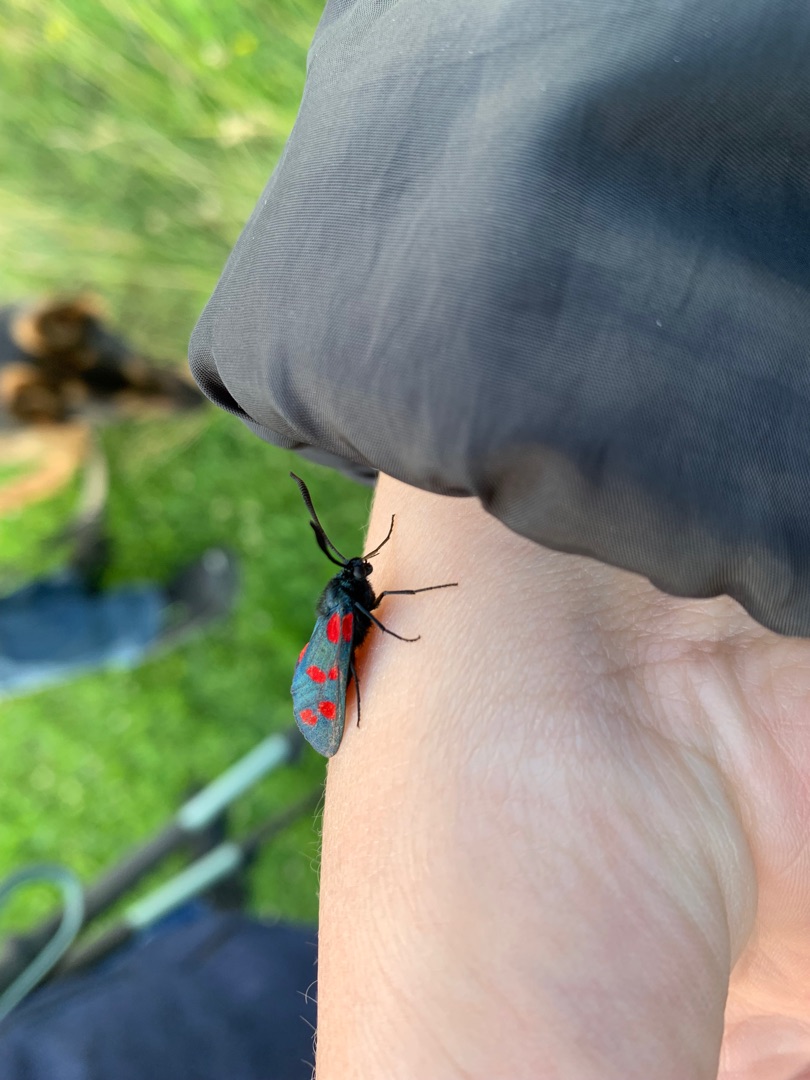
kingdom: Animalia
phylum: Arthropoda
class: Insecta
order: Lepidoptera
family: Zygaenidae
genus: Zygaena
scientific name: Zygaena filipendulae
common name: Seksplettet køllesværmer
